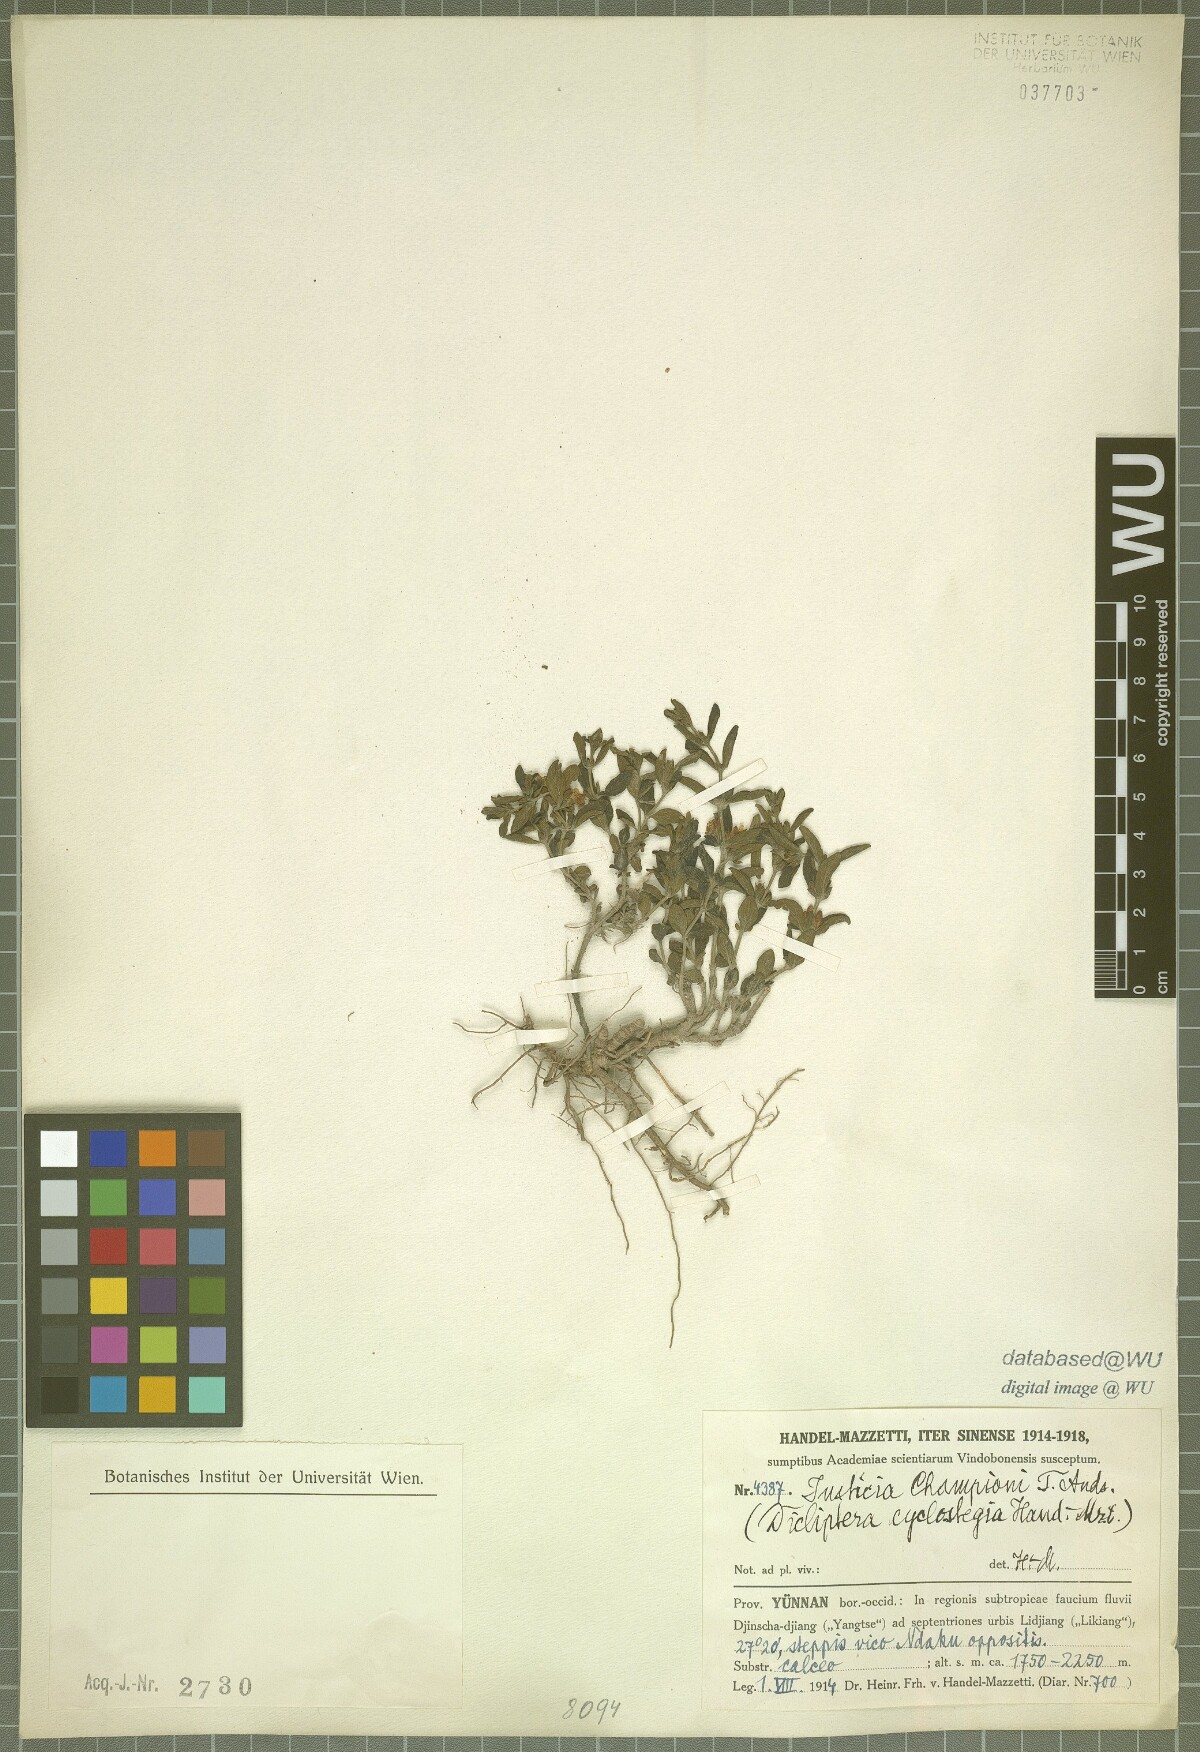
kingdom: Plantae
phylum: Tracheophyta
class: Magnoliopsida
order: Lamiales
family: Acanthaceae
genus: Justicia
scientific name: Justicia championii
